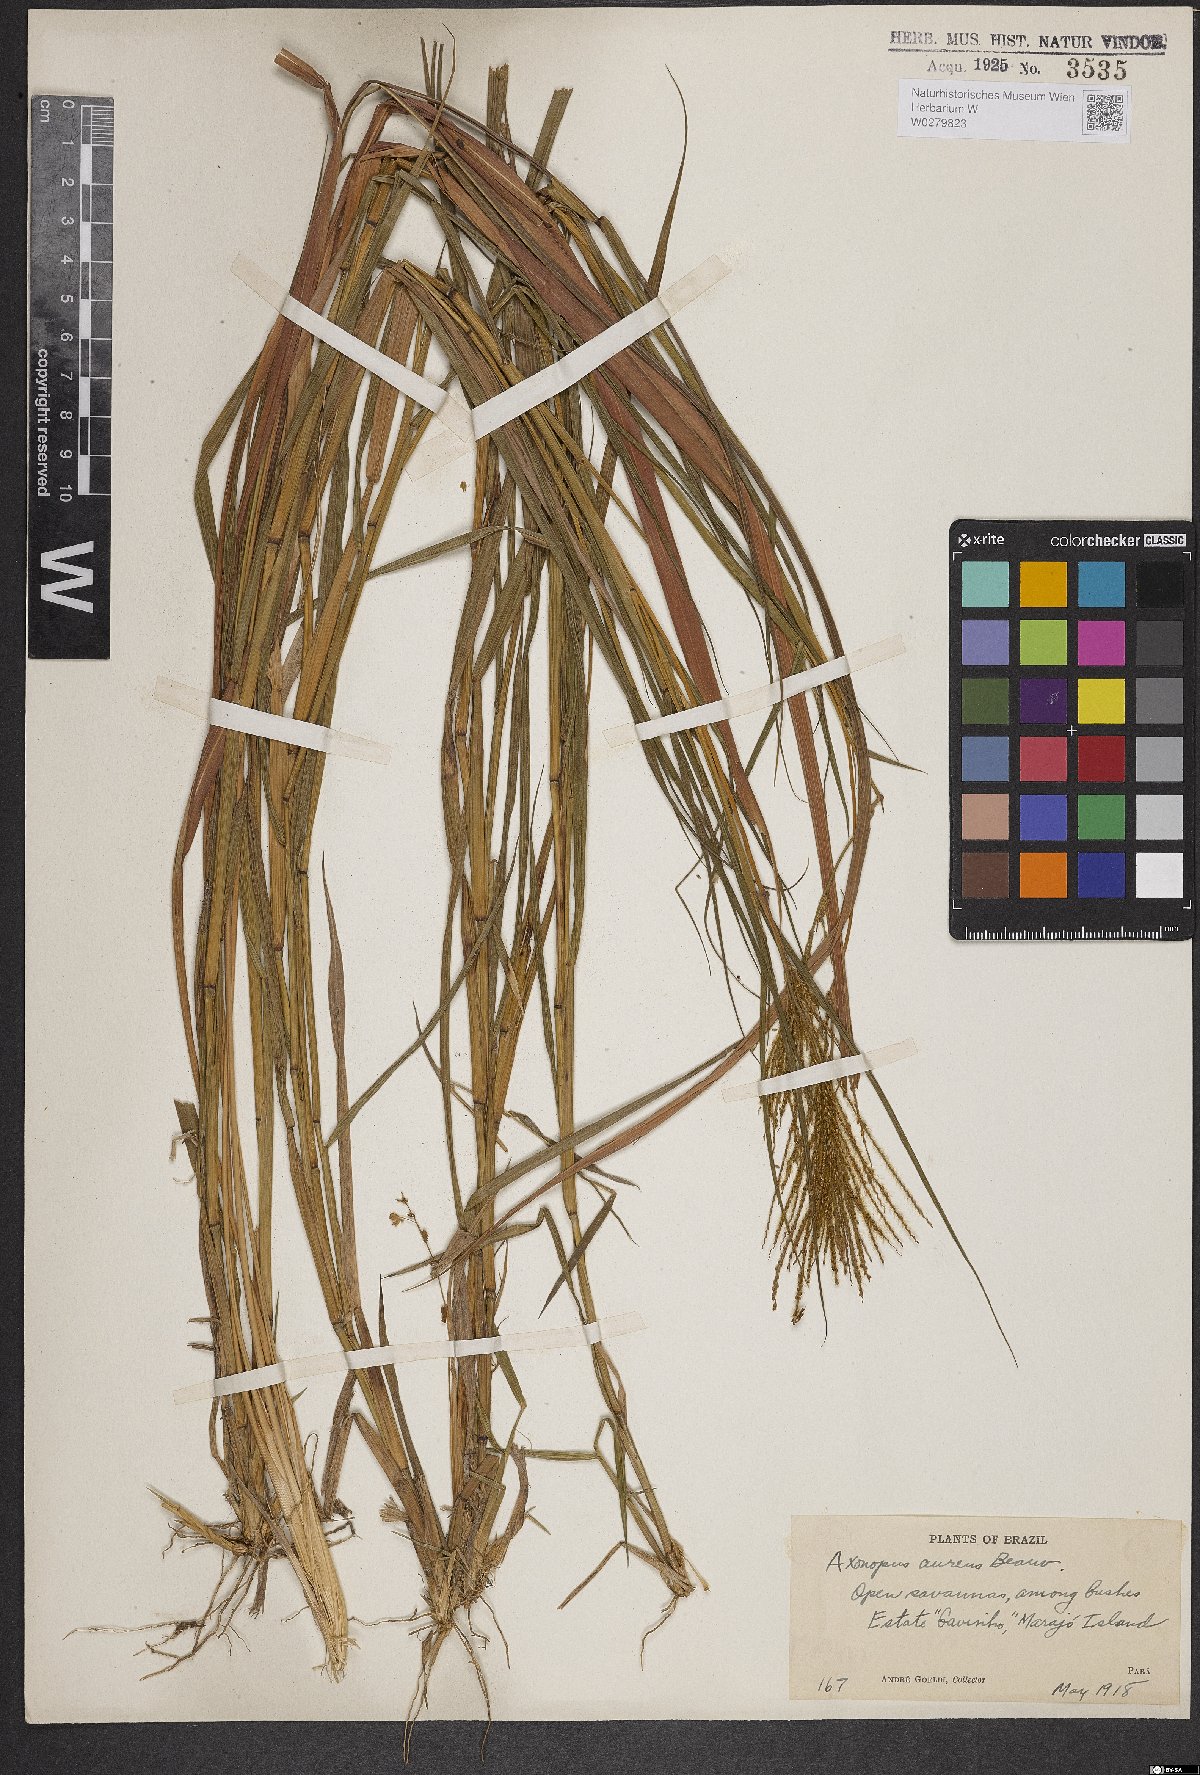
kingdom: Plantae
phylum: Tracheophyta
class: Liliopsida
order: Poales
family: Poaceae
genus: Axonopus
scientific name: Axonopus aureus
